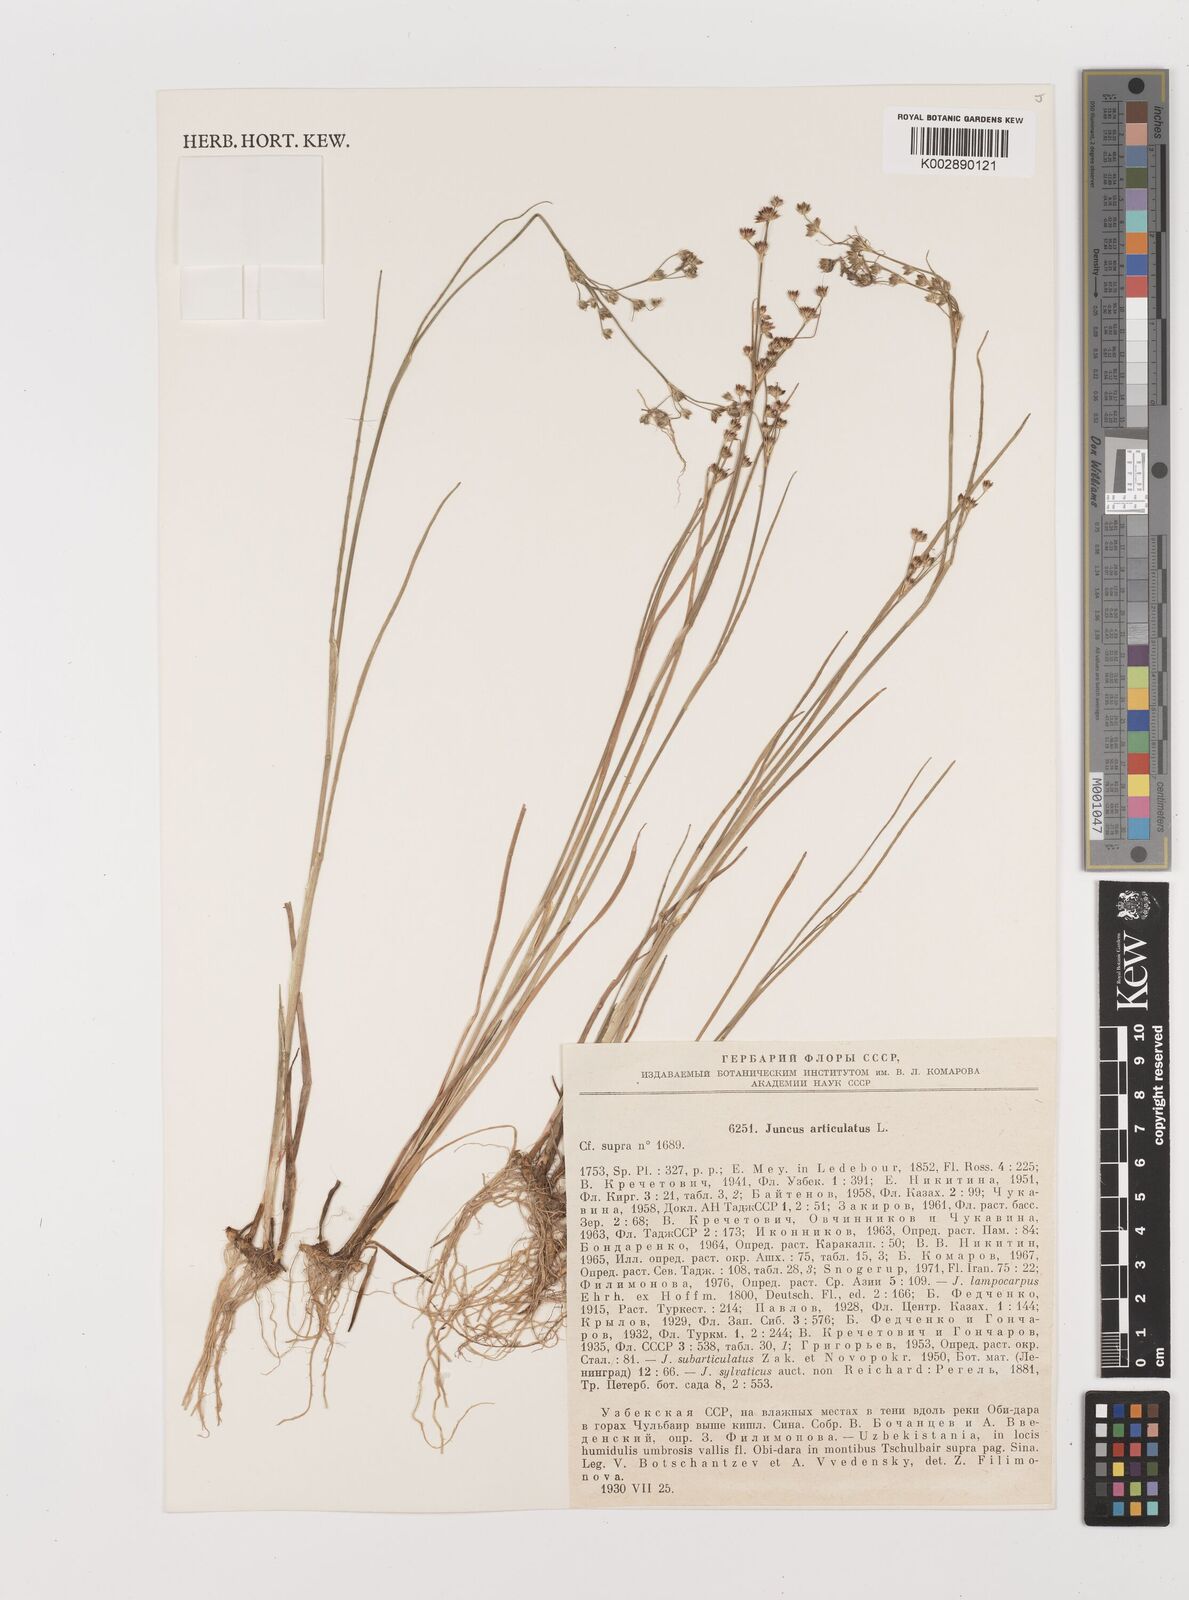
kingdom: Plantae
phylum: Tracheophyta
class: Liliopsida
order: Poales
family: Juncaceae
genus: Juncus
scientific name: Juncus articulatus
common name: Jointed rush
